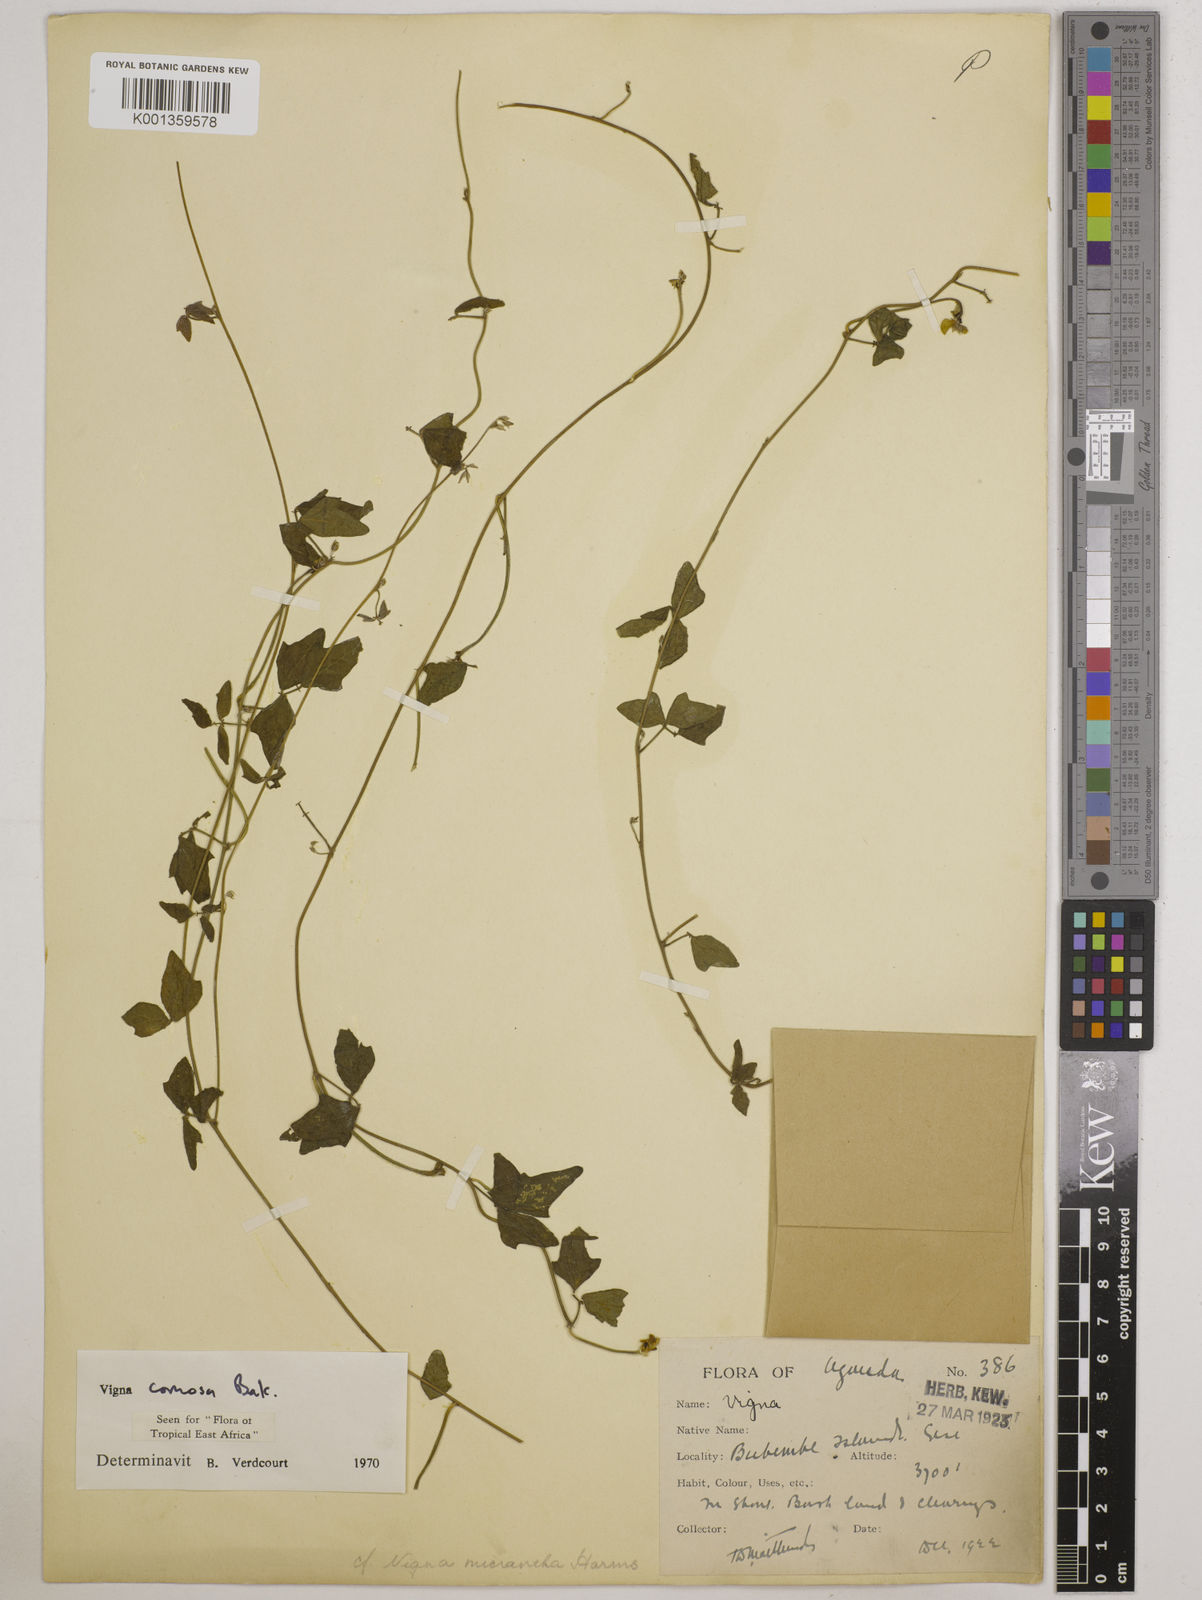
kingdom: Plantae
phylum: Tracheophyta
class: Magnoliopsida
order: Fabales
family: Fabaceae
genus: Vigna
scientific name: Vigna comosa
